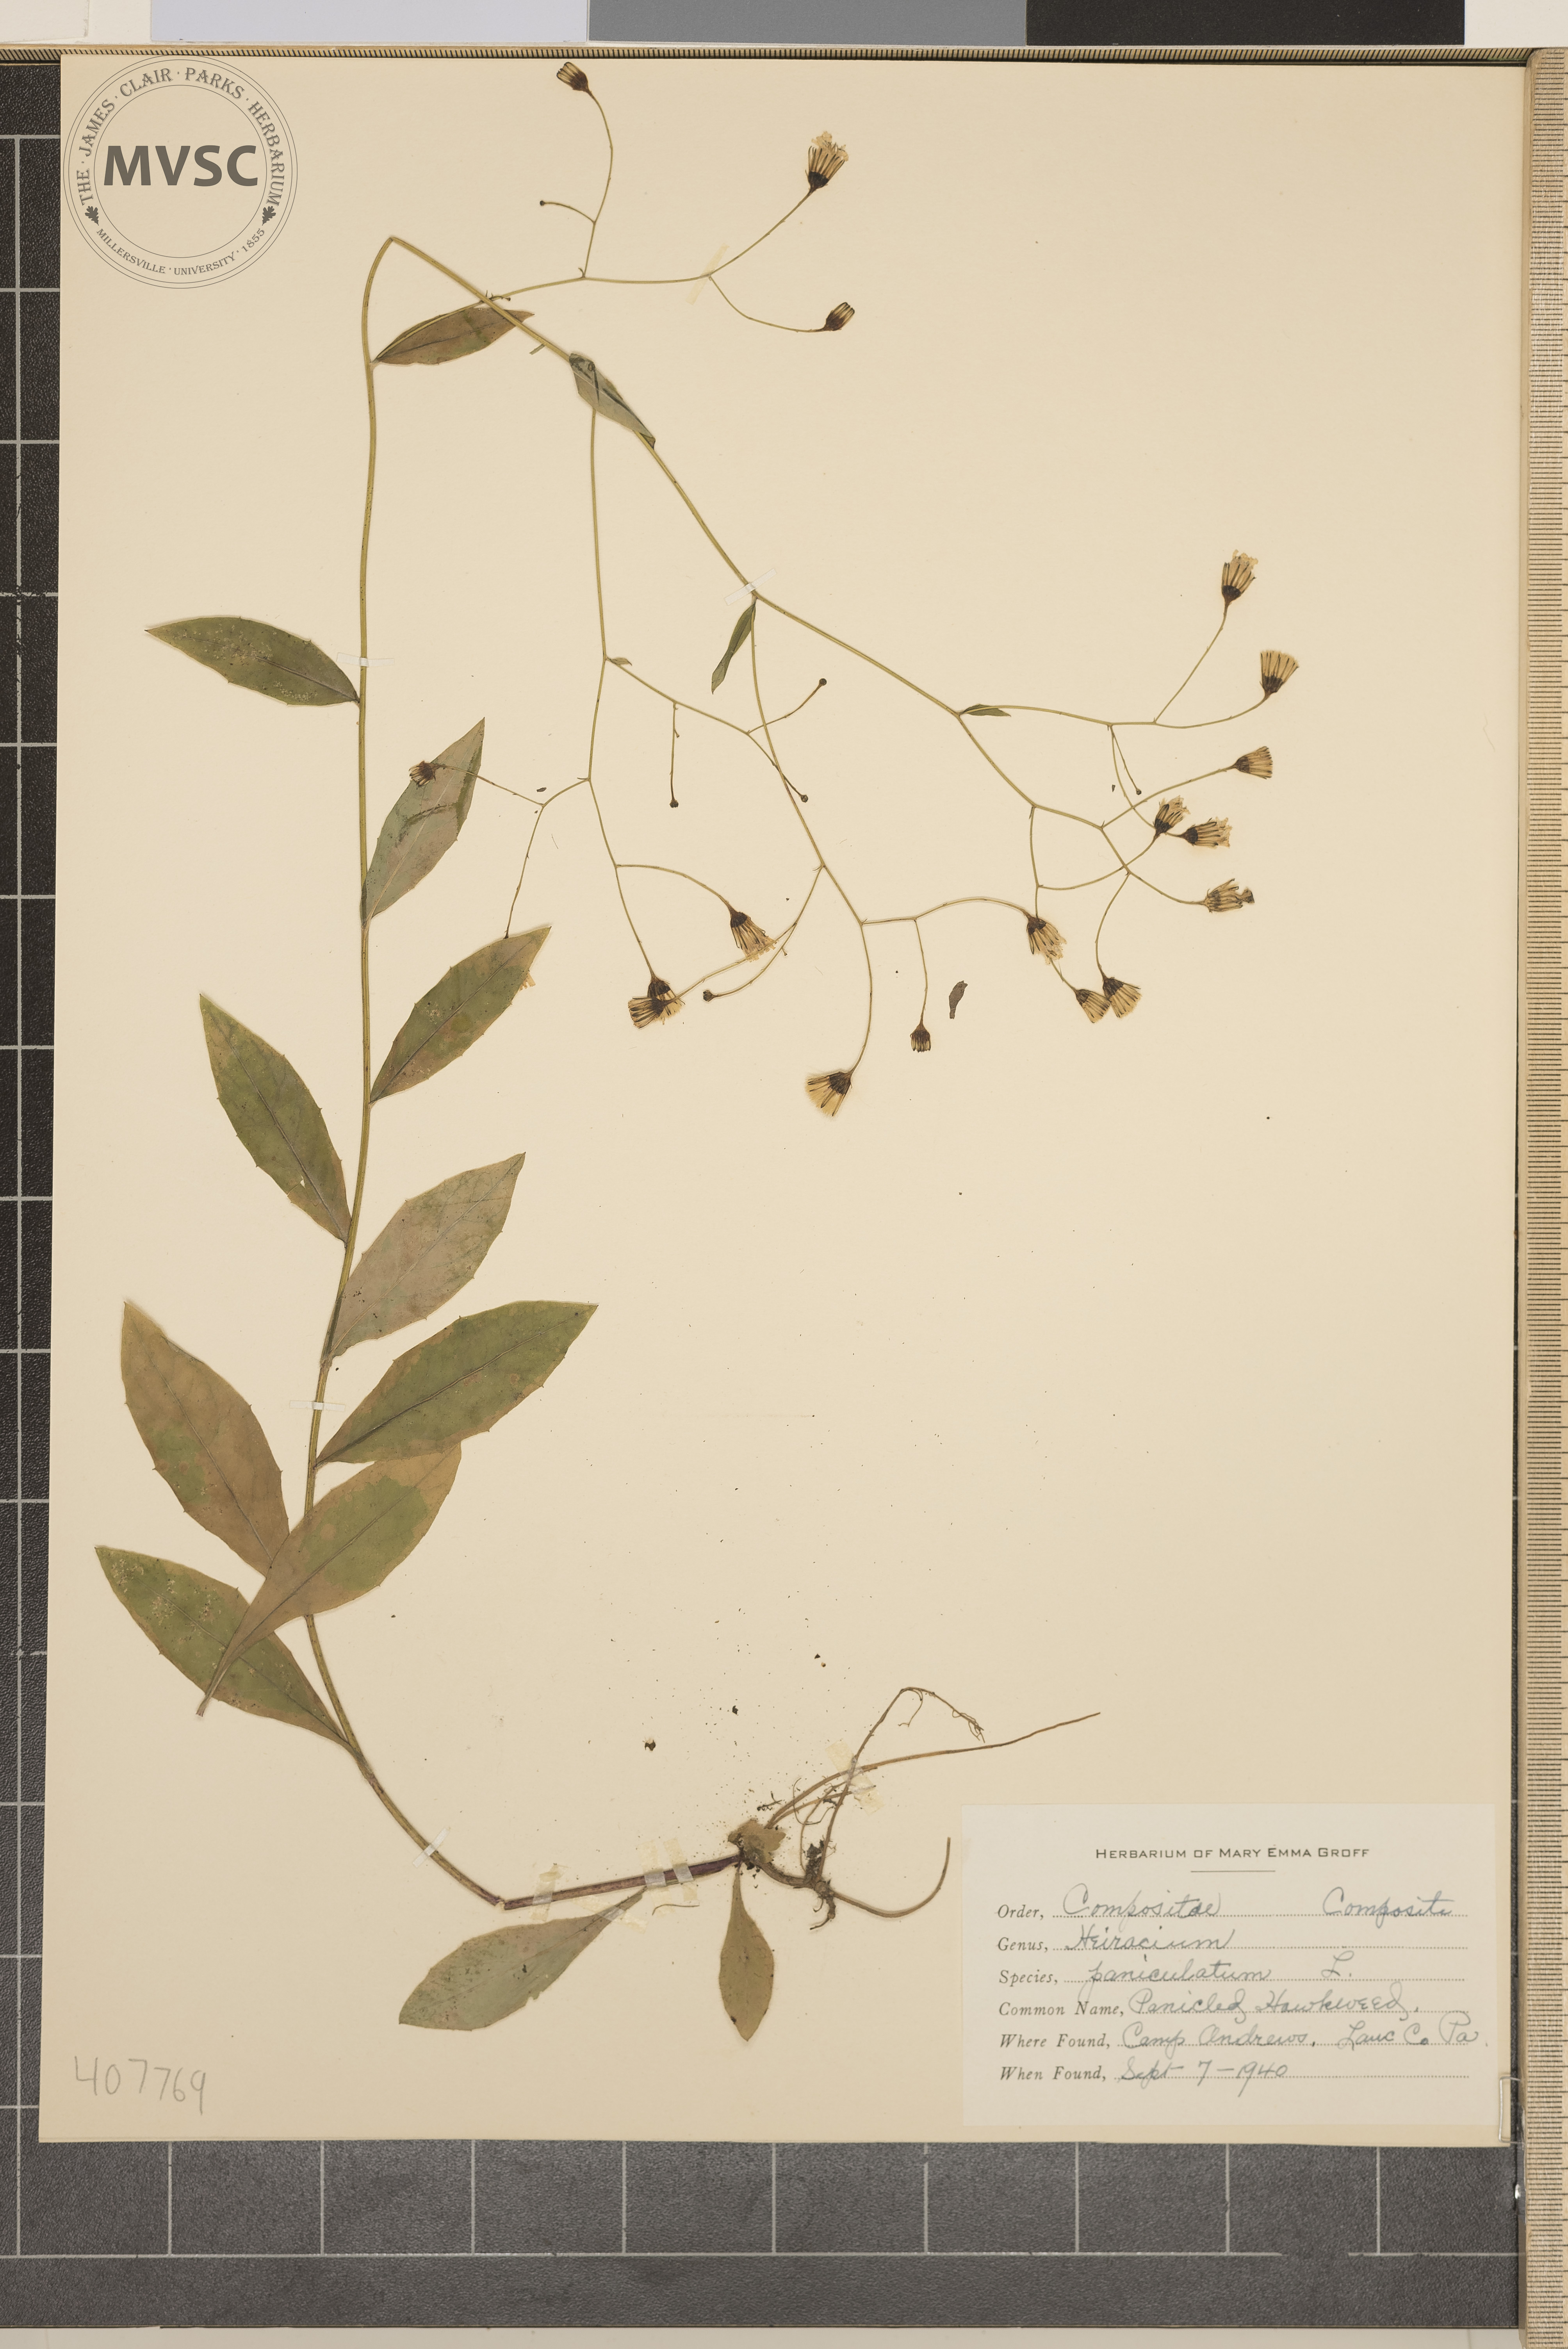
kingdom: Plantae
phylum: Tracheophyta
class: Magnoliopsida
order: Asterales
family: Asteraceae
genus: Hieracium
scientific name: Hieracium paniculatum
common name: Panicled hawkweed
